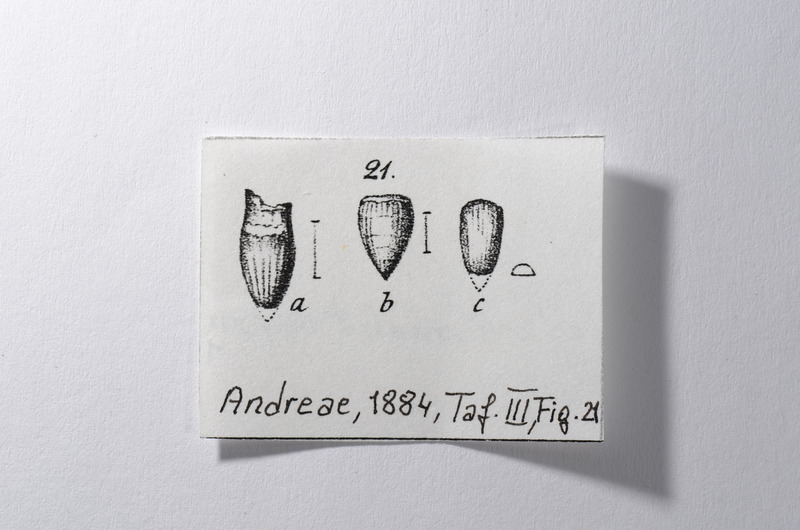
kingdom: Animalia
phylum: Chordata
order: Amiiformes
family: Amiidae
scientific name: Amiidae
